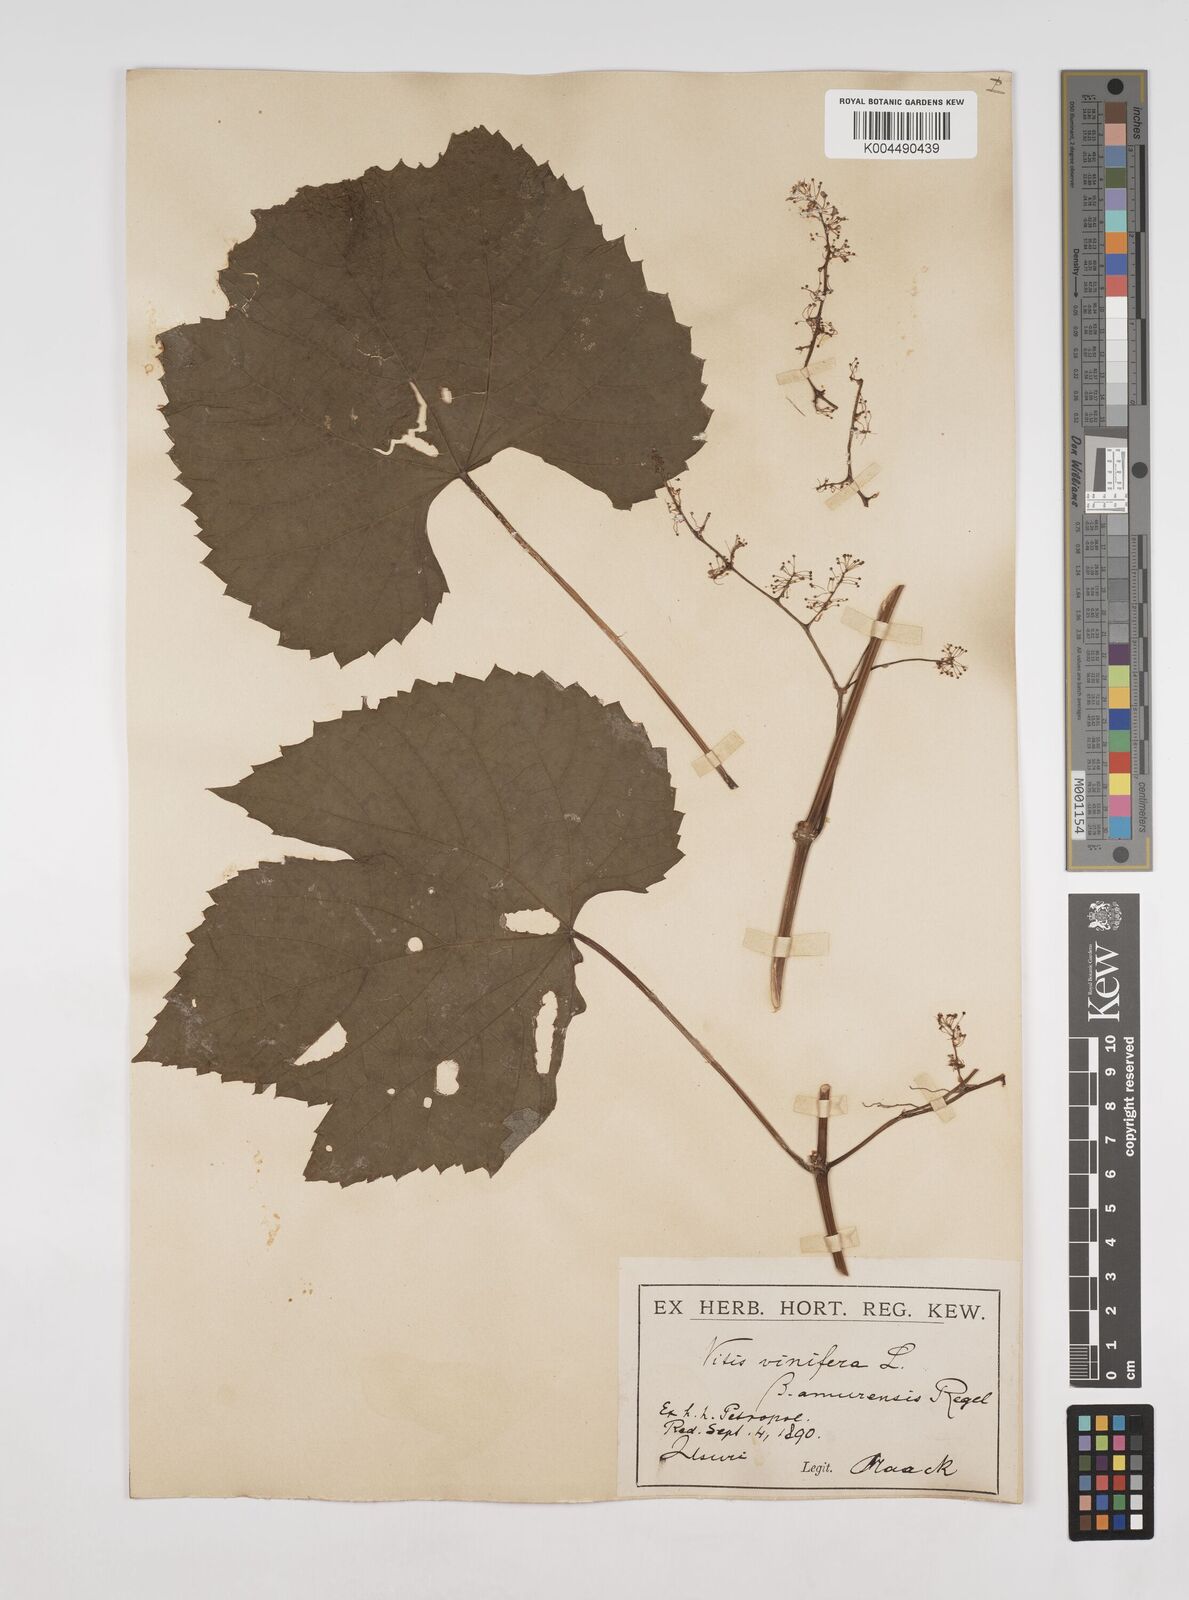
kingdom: Plantae
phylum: Tracheophyta
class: Magnoliopsida
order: Vitales
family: Vitaceae
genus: Vitis
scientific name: Vitis vinifera
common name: Grape-vine
